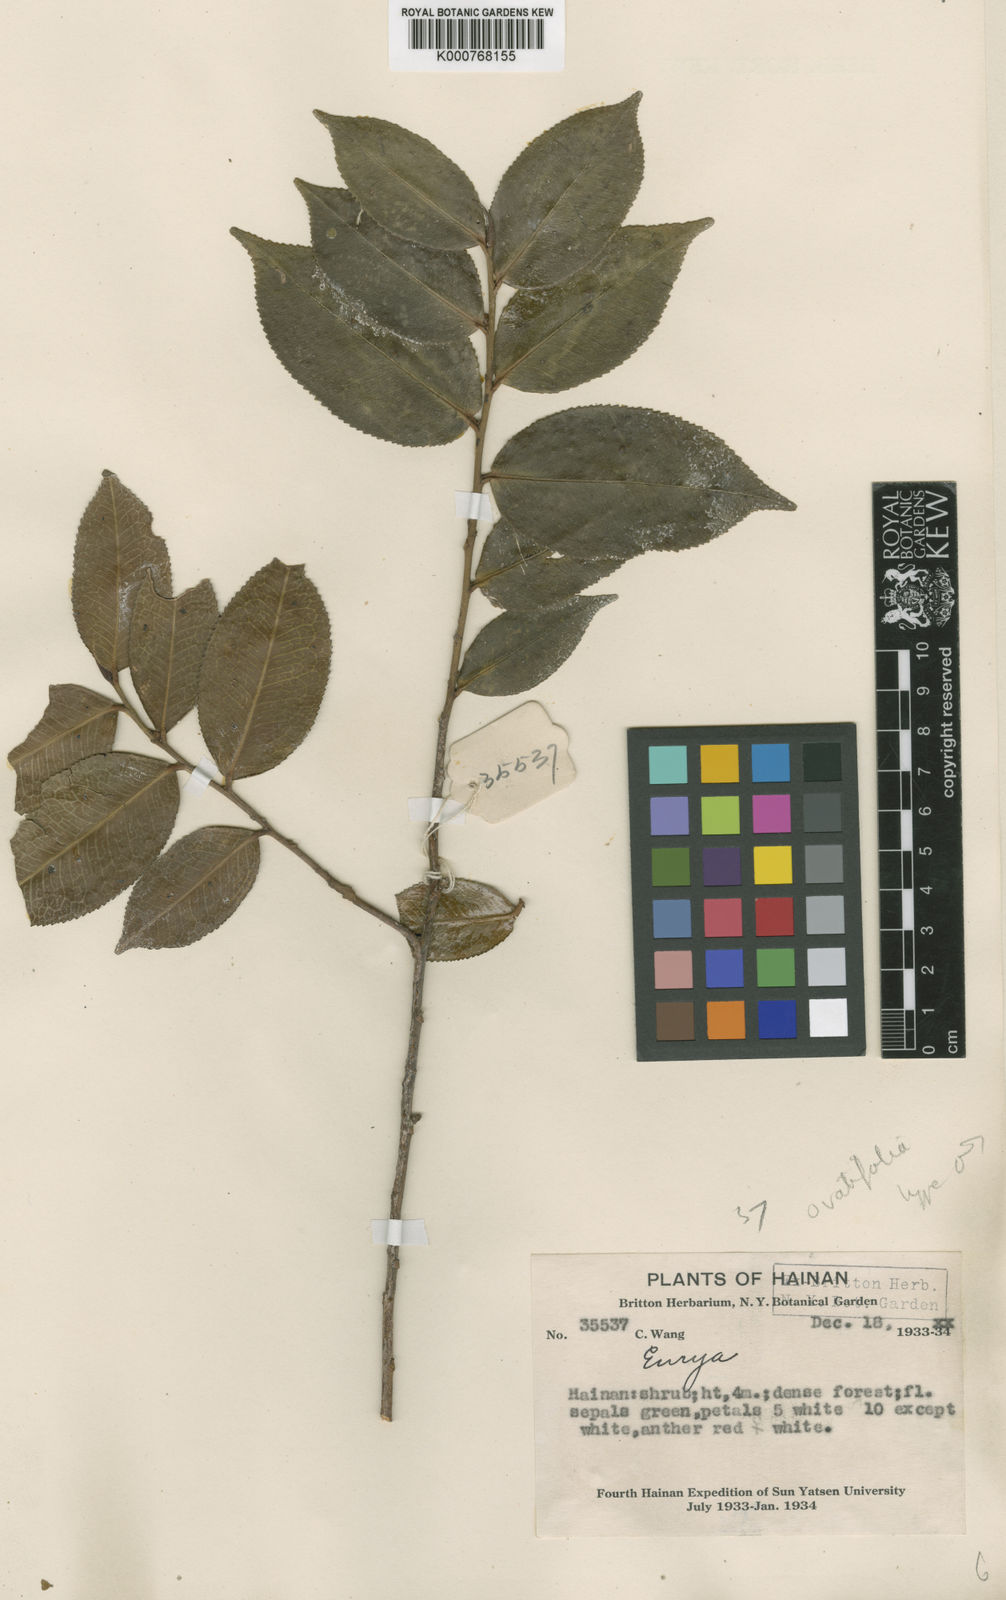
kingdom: Plantae
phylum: Tracheophyta
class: Magnoliopsida
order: Ericales
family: Pentaphylacaceae
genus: Eurya
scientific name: Eurya ovatifolia
